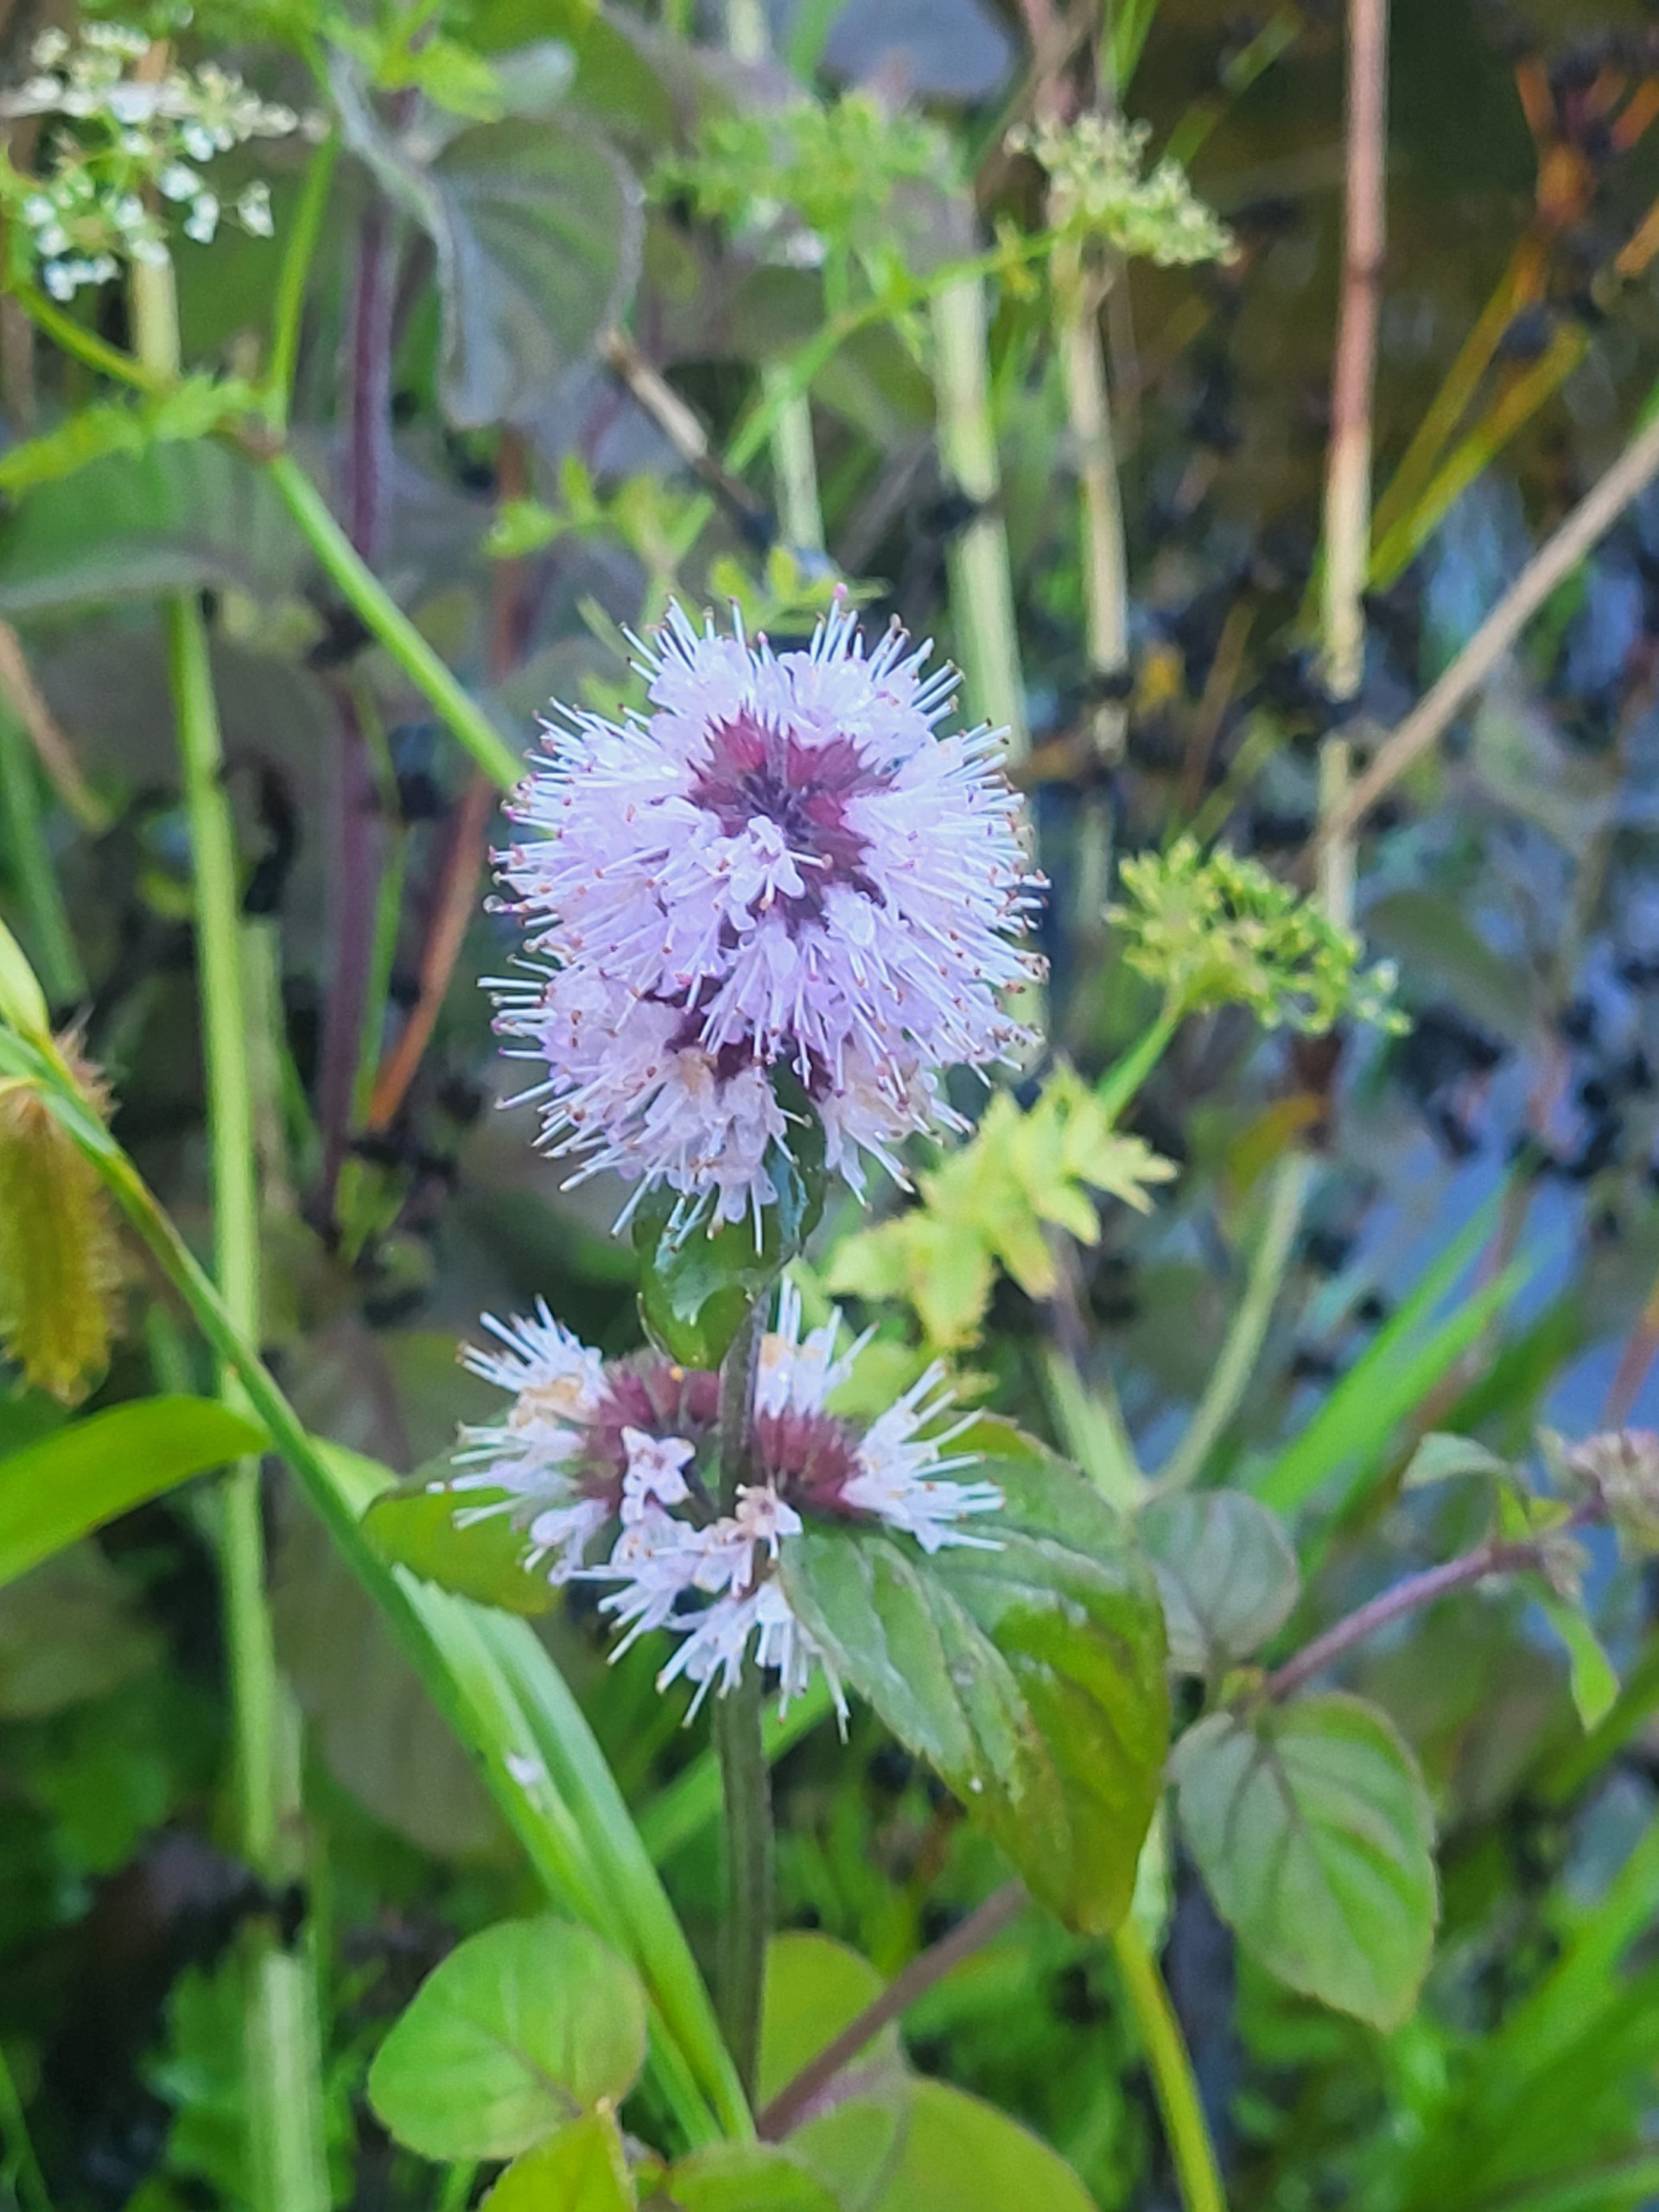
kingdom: Plantae
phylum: Tracheophyta
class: Magnoliopsida
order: Lamiales
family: Lamiaceae
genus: Mentha
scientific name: Mentha aquatica
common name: Vand-mynte
